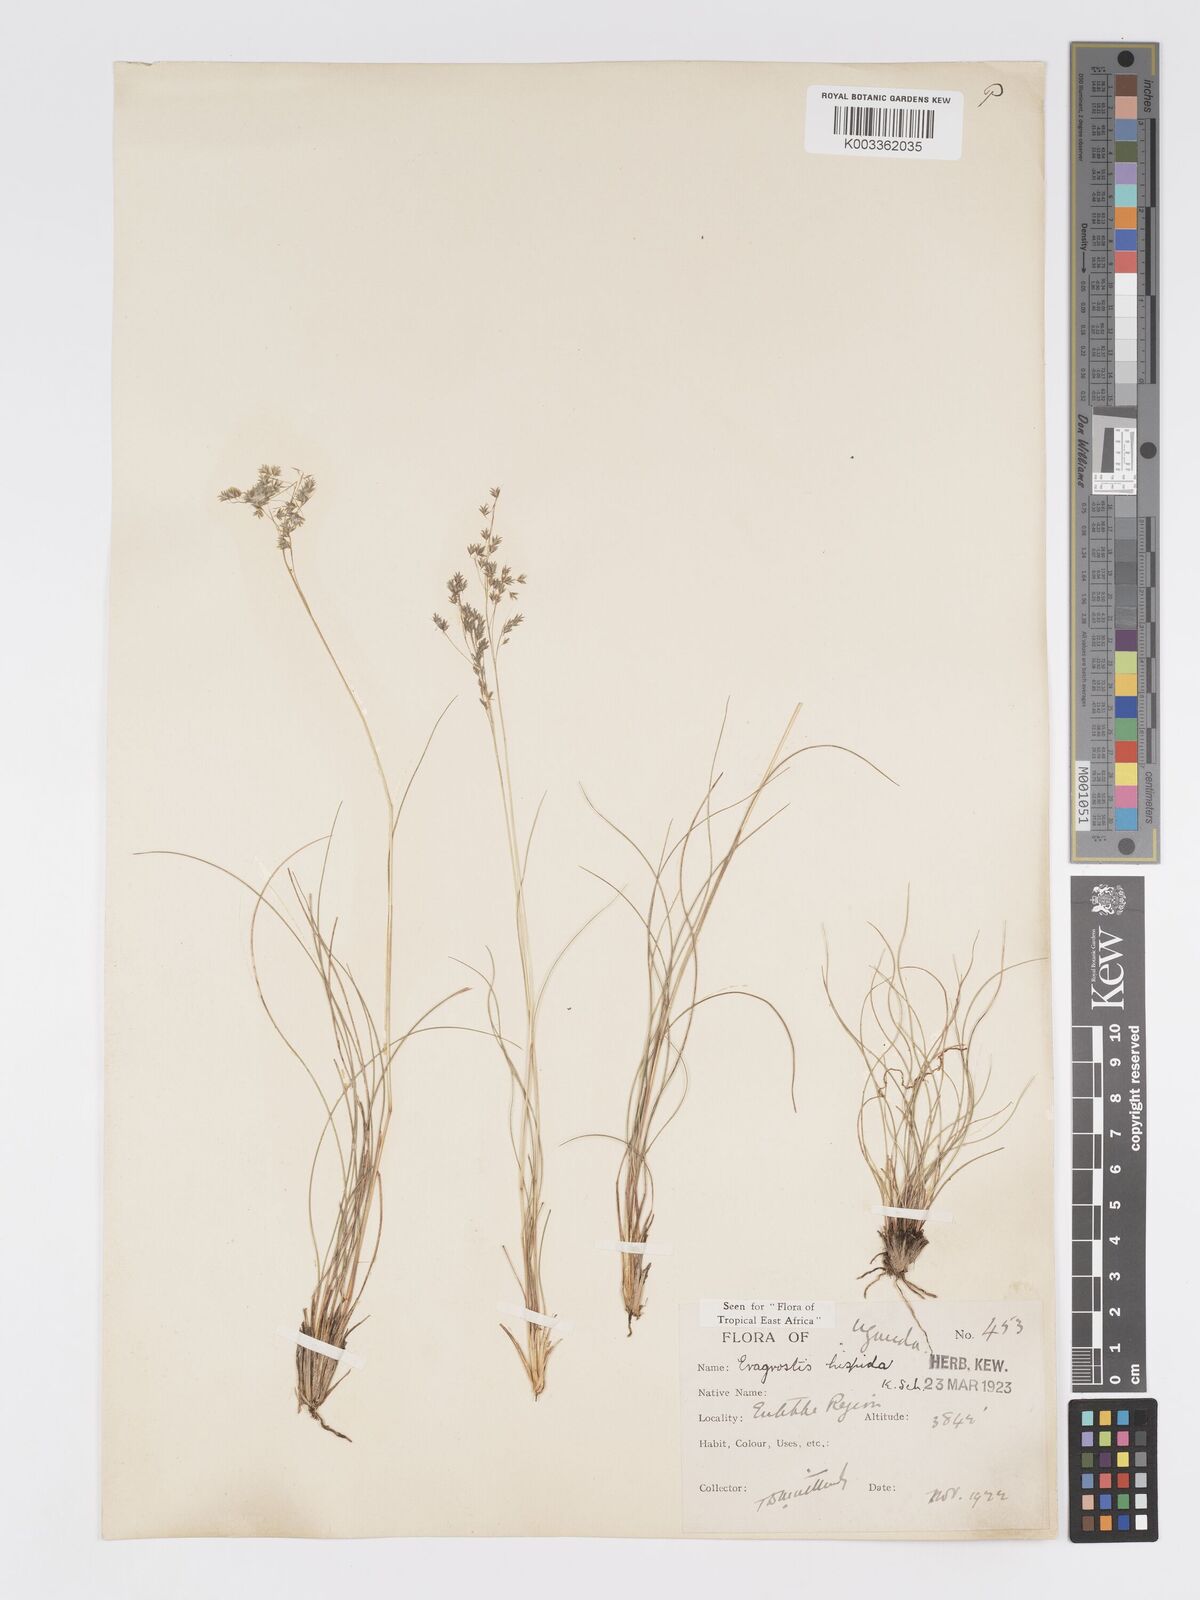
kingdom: Plantae
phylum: Tracheophyta
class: Liliopsida
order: Poales
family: Poaceae
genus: Eragrostis
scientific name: Eragrostis hispida
